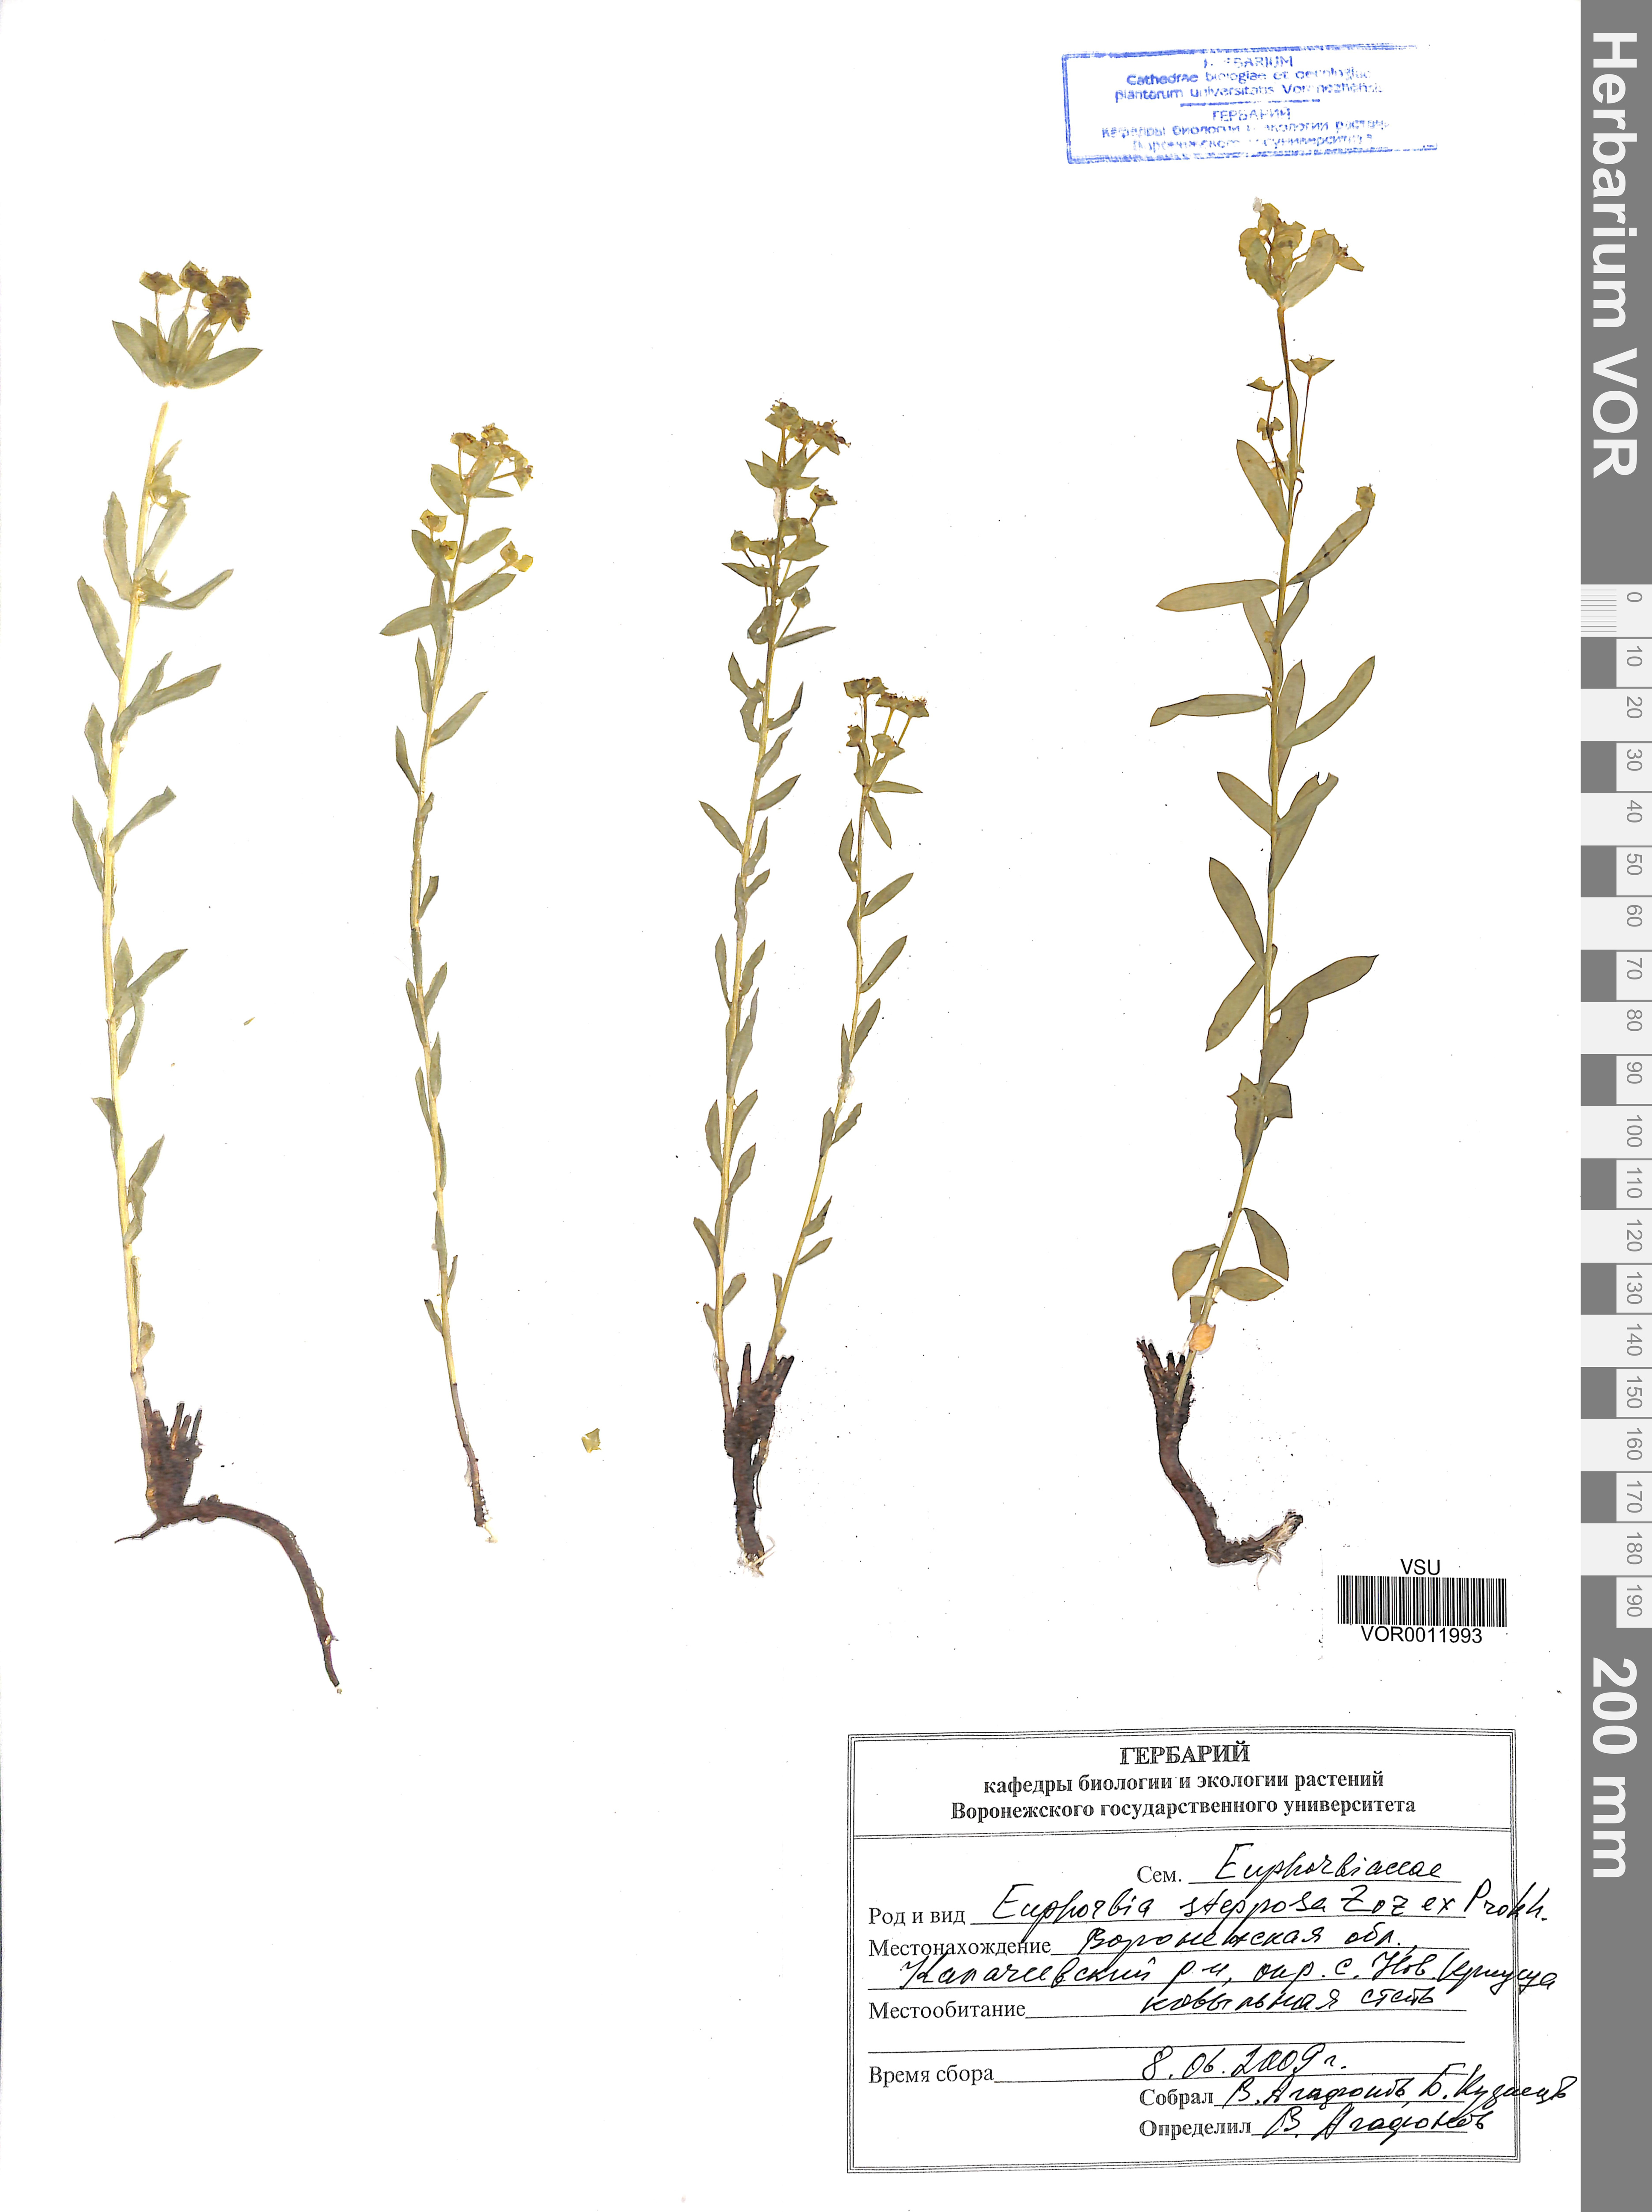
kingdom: Plantae
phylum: Tracheophyta
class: Magnoliopsida
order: Malpighiales
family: Euphorbiaceae
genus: Euphorbia
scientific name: Euphorbia stepposa
